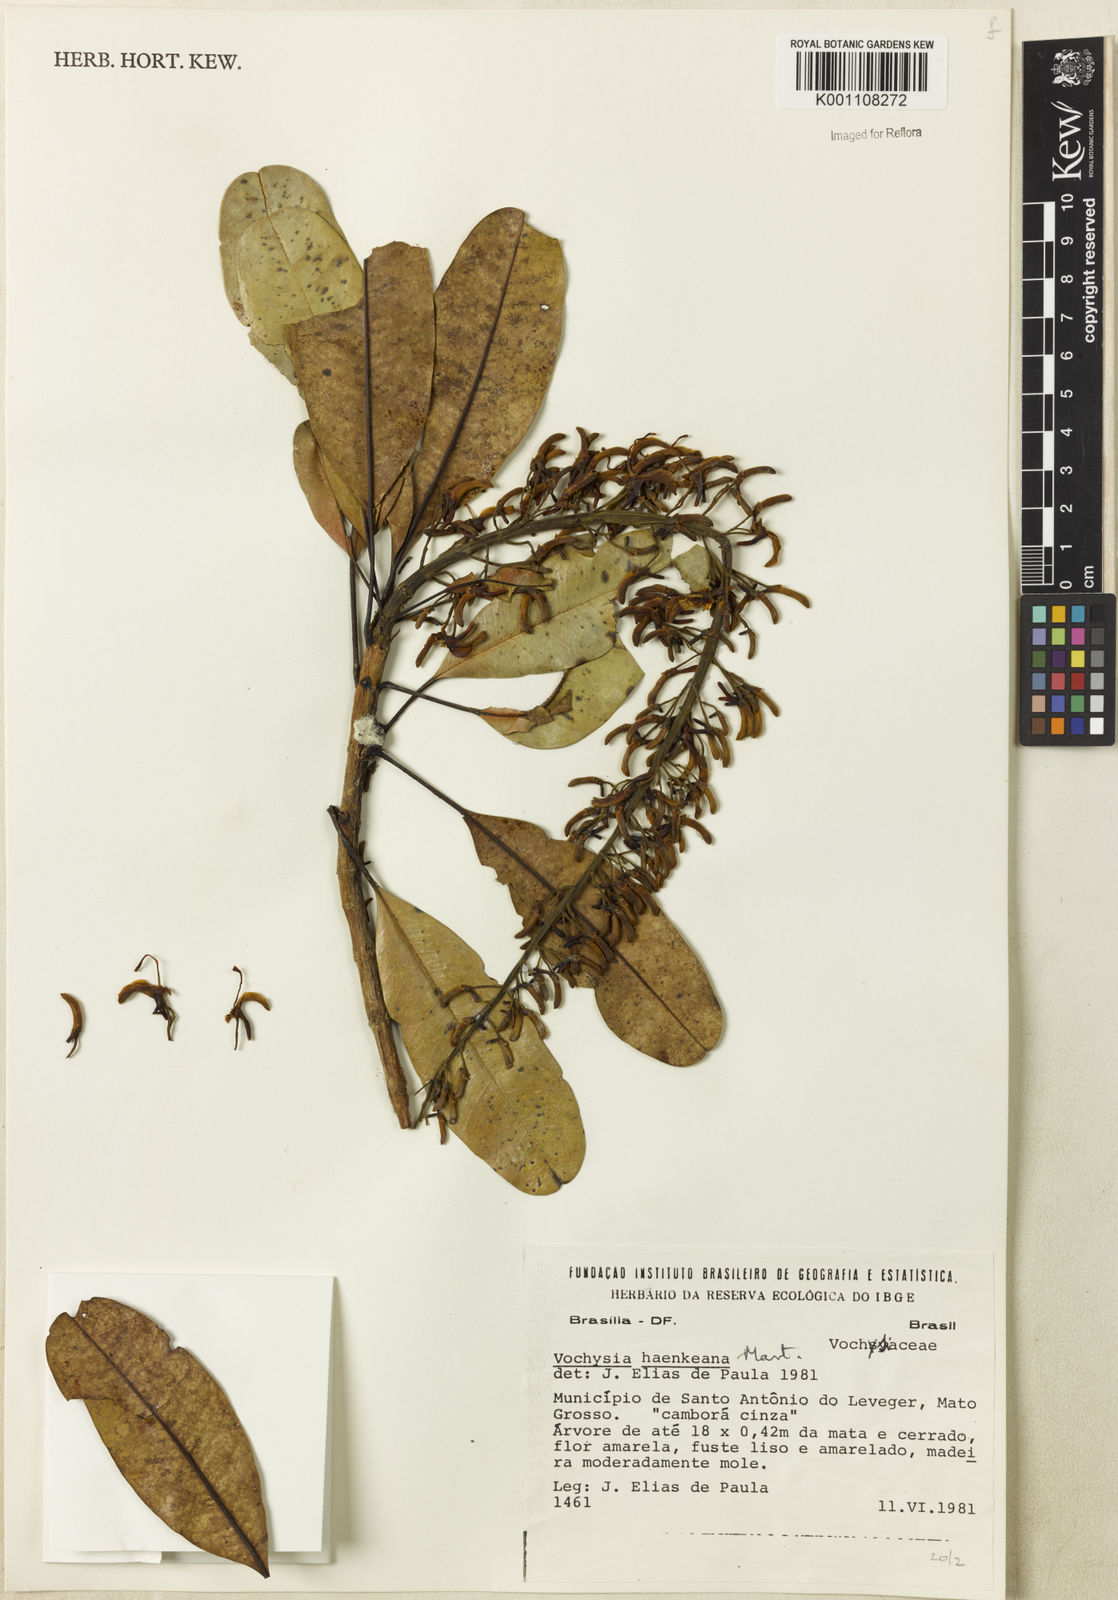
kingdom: Plantae
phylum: Tracheophyta
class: Magnoliopsida
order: Myrtales
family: Vochysiaceae
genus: Vochysia
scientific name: Vochysia haenkeana
